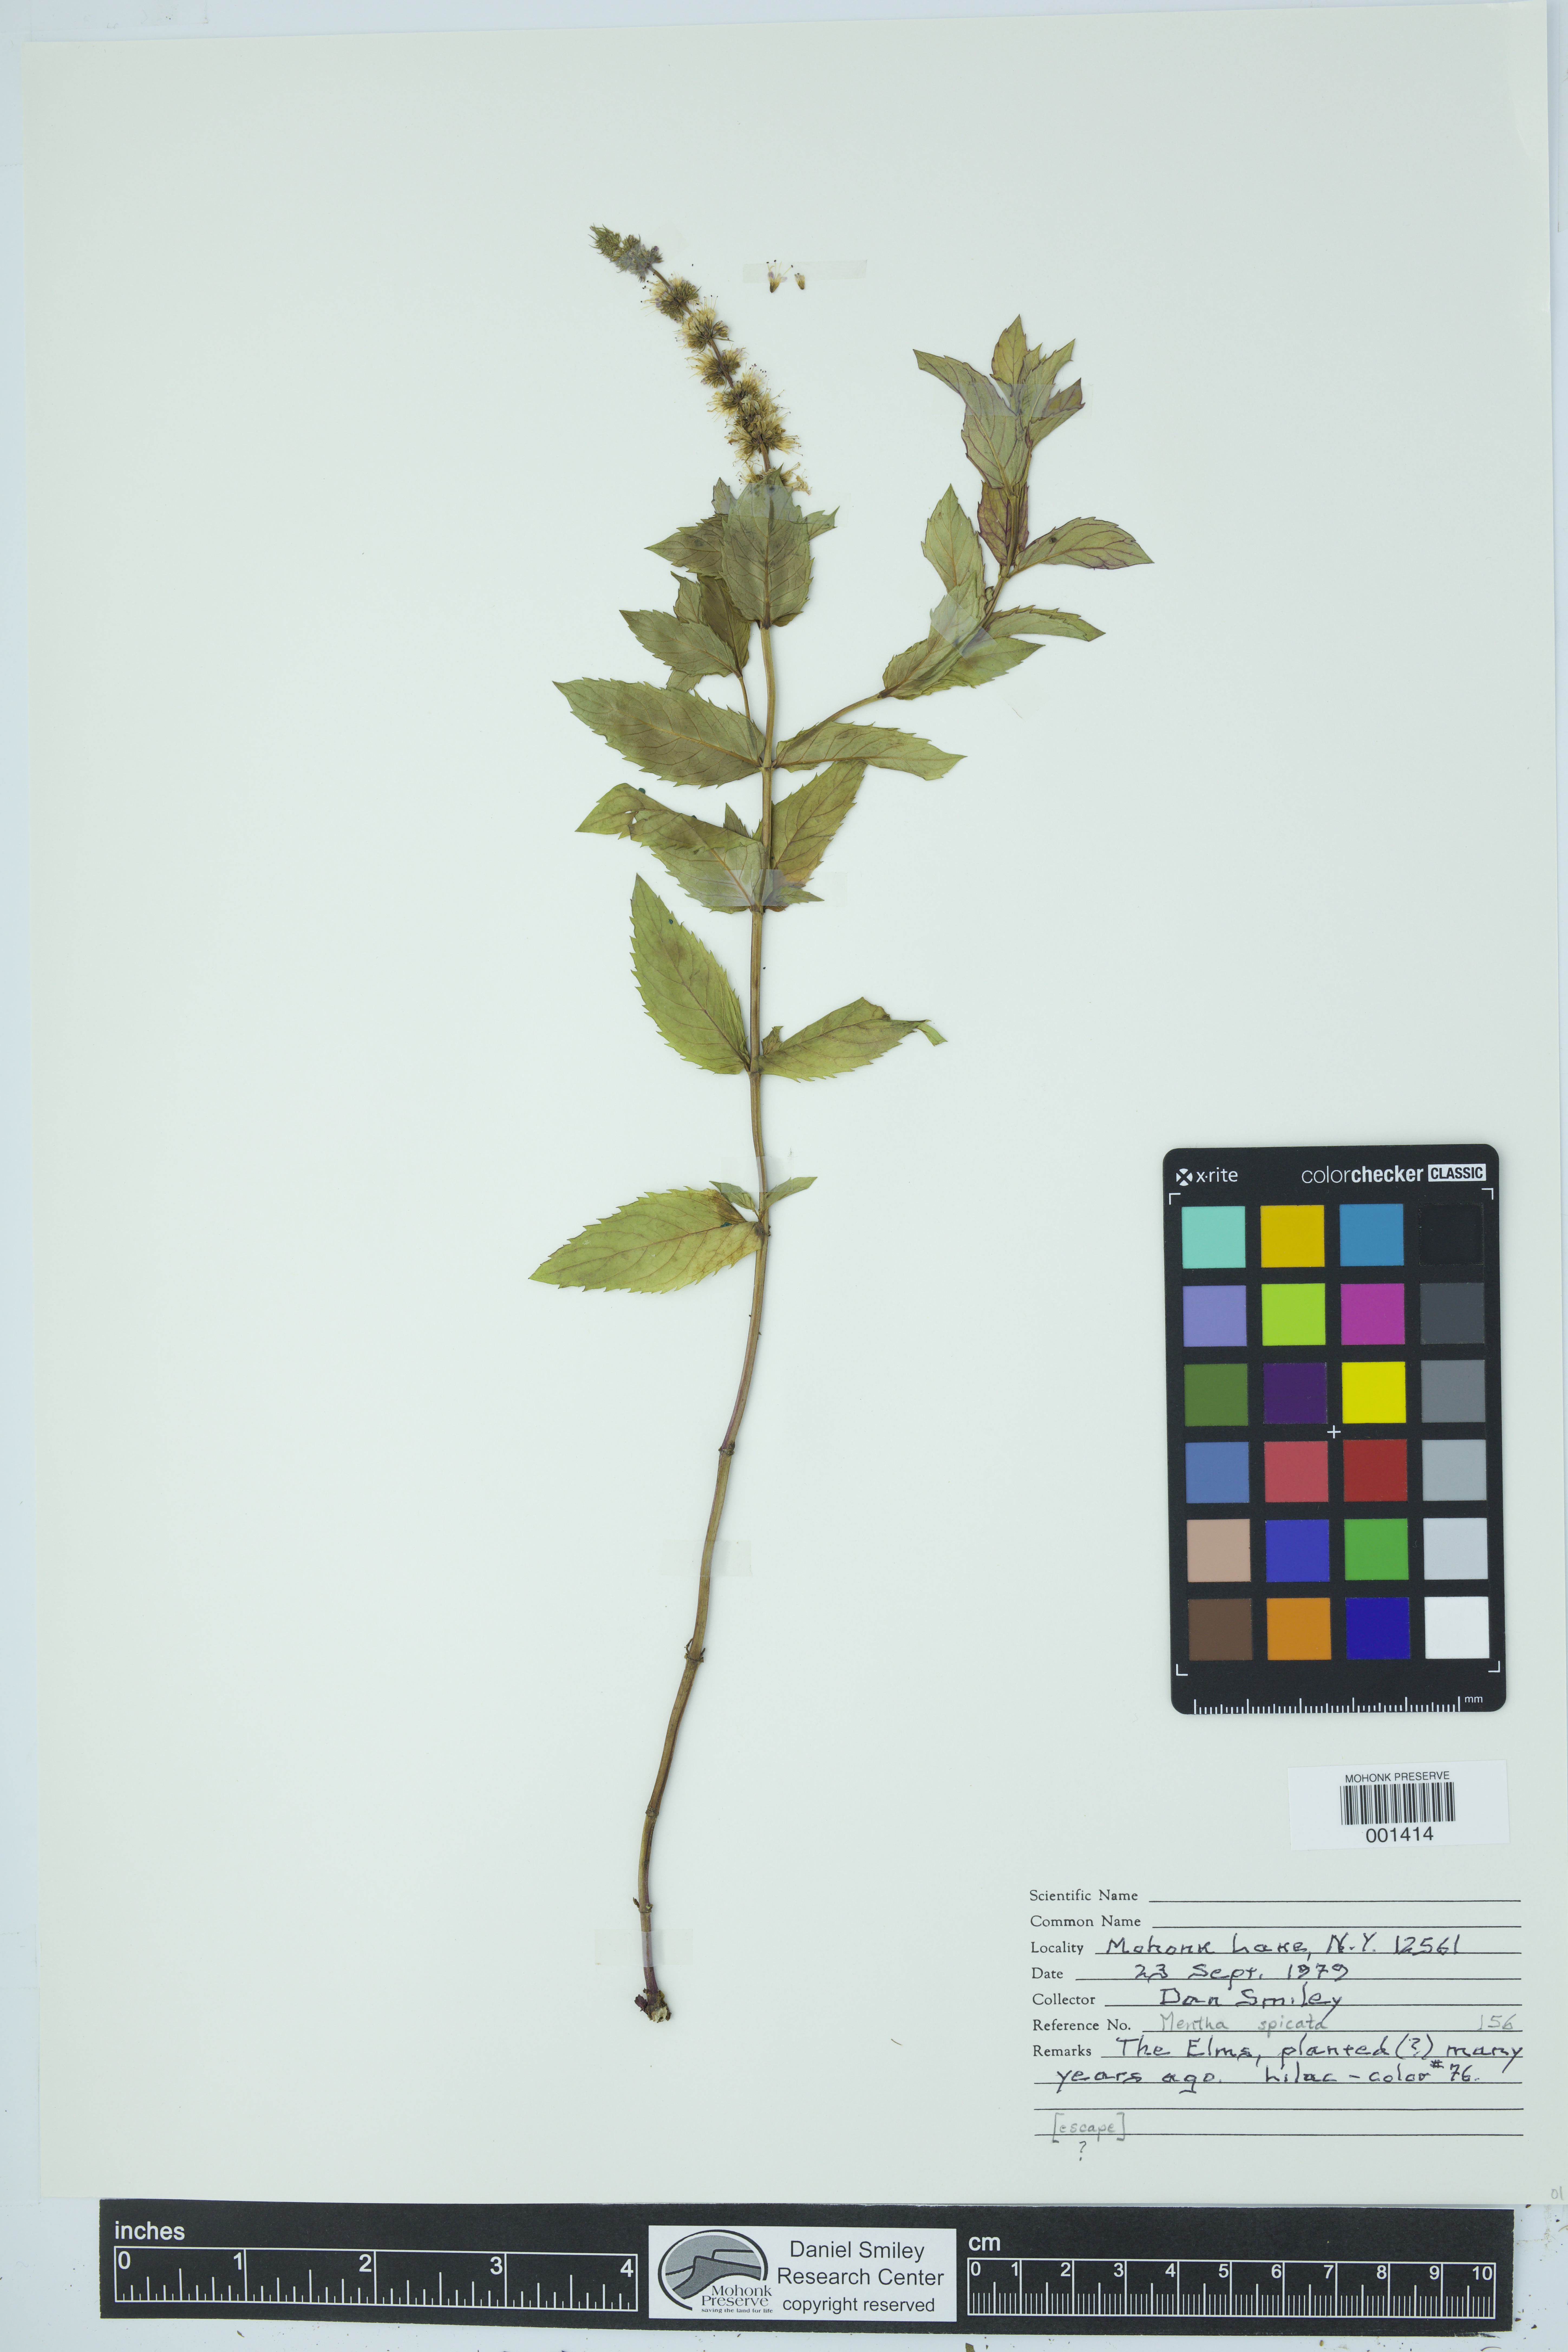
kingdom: Plantae
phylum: Tracheophyta
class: Magnoliopsida
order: Lamiales
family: Lamiaceae
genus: Mentha
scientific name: Mentha spicata
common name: Spearmint
